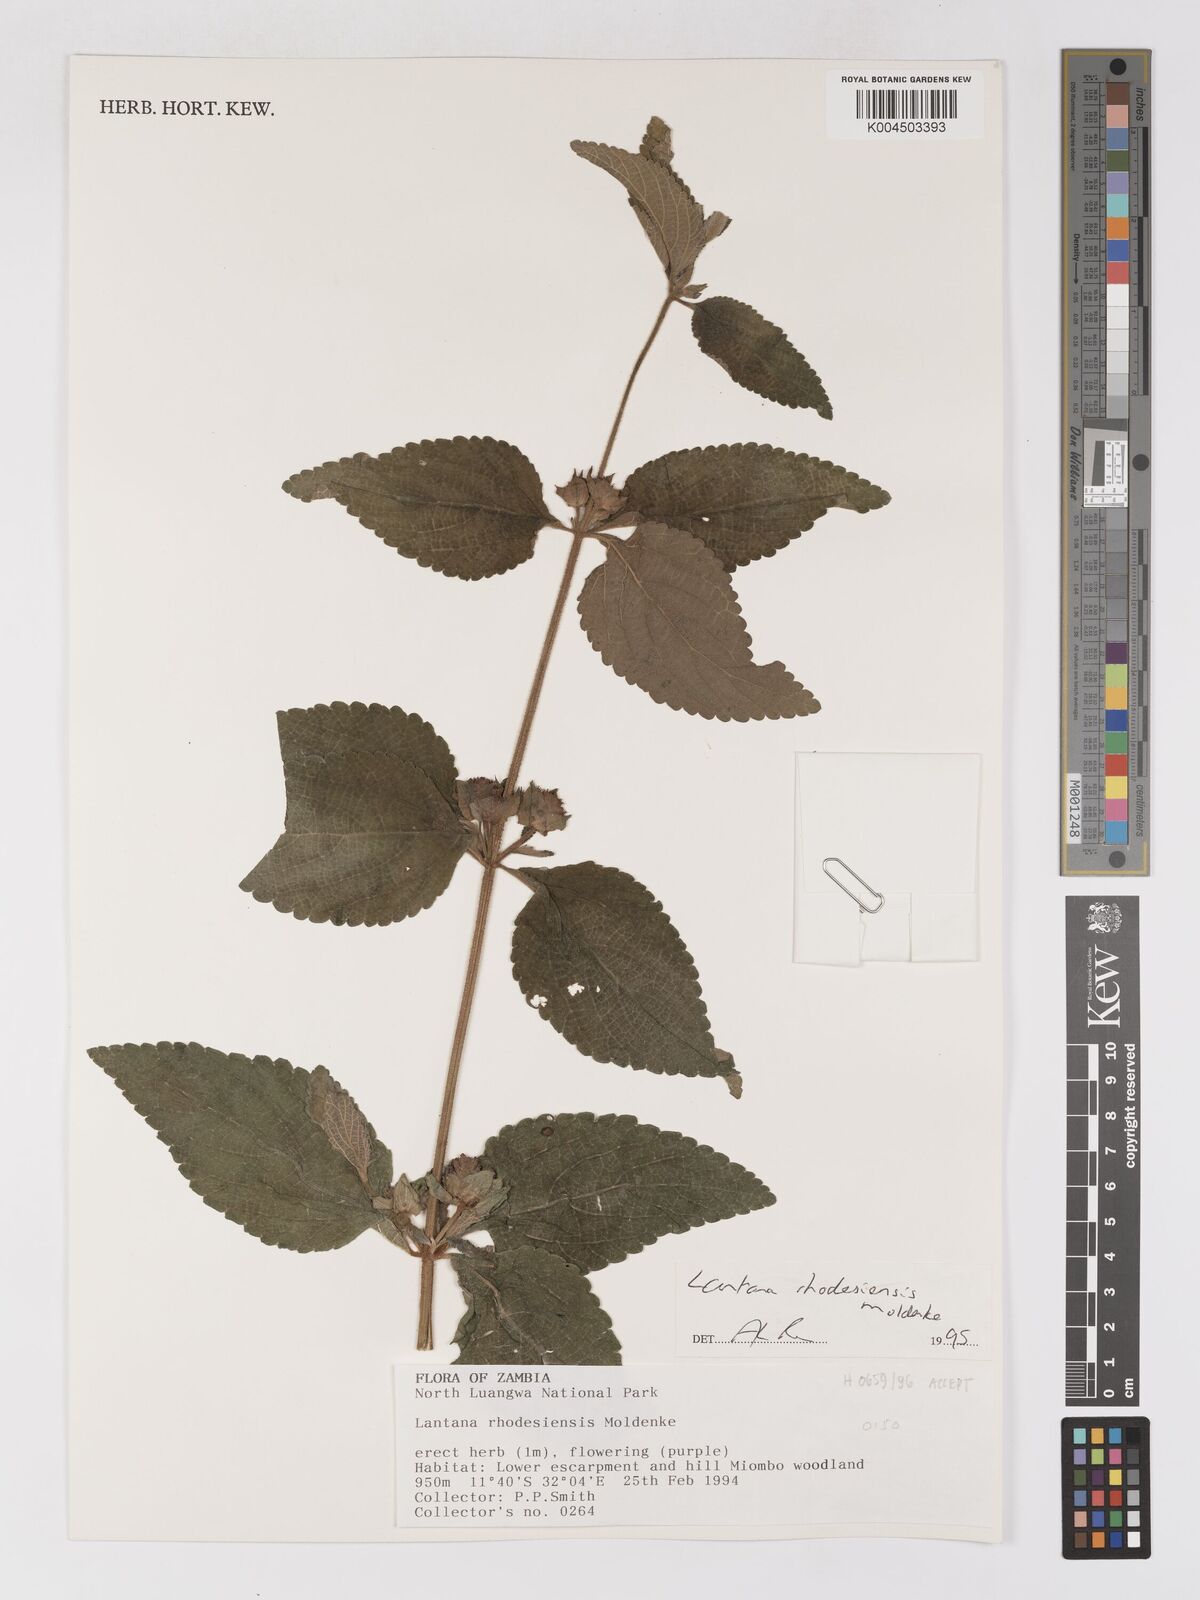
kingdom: Plantae
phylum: Tracheophyta
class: Magnoliopsida
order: Lamiales
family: Verbenaceae
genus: Lantana
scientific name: Lantana ukambensis
